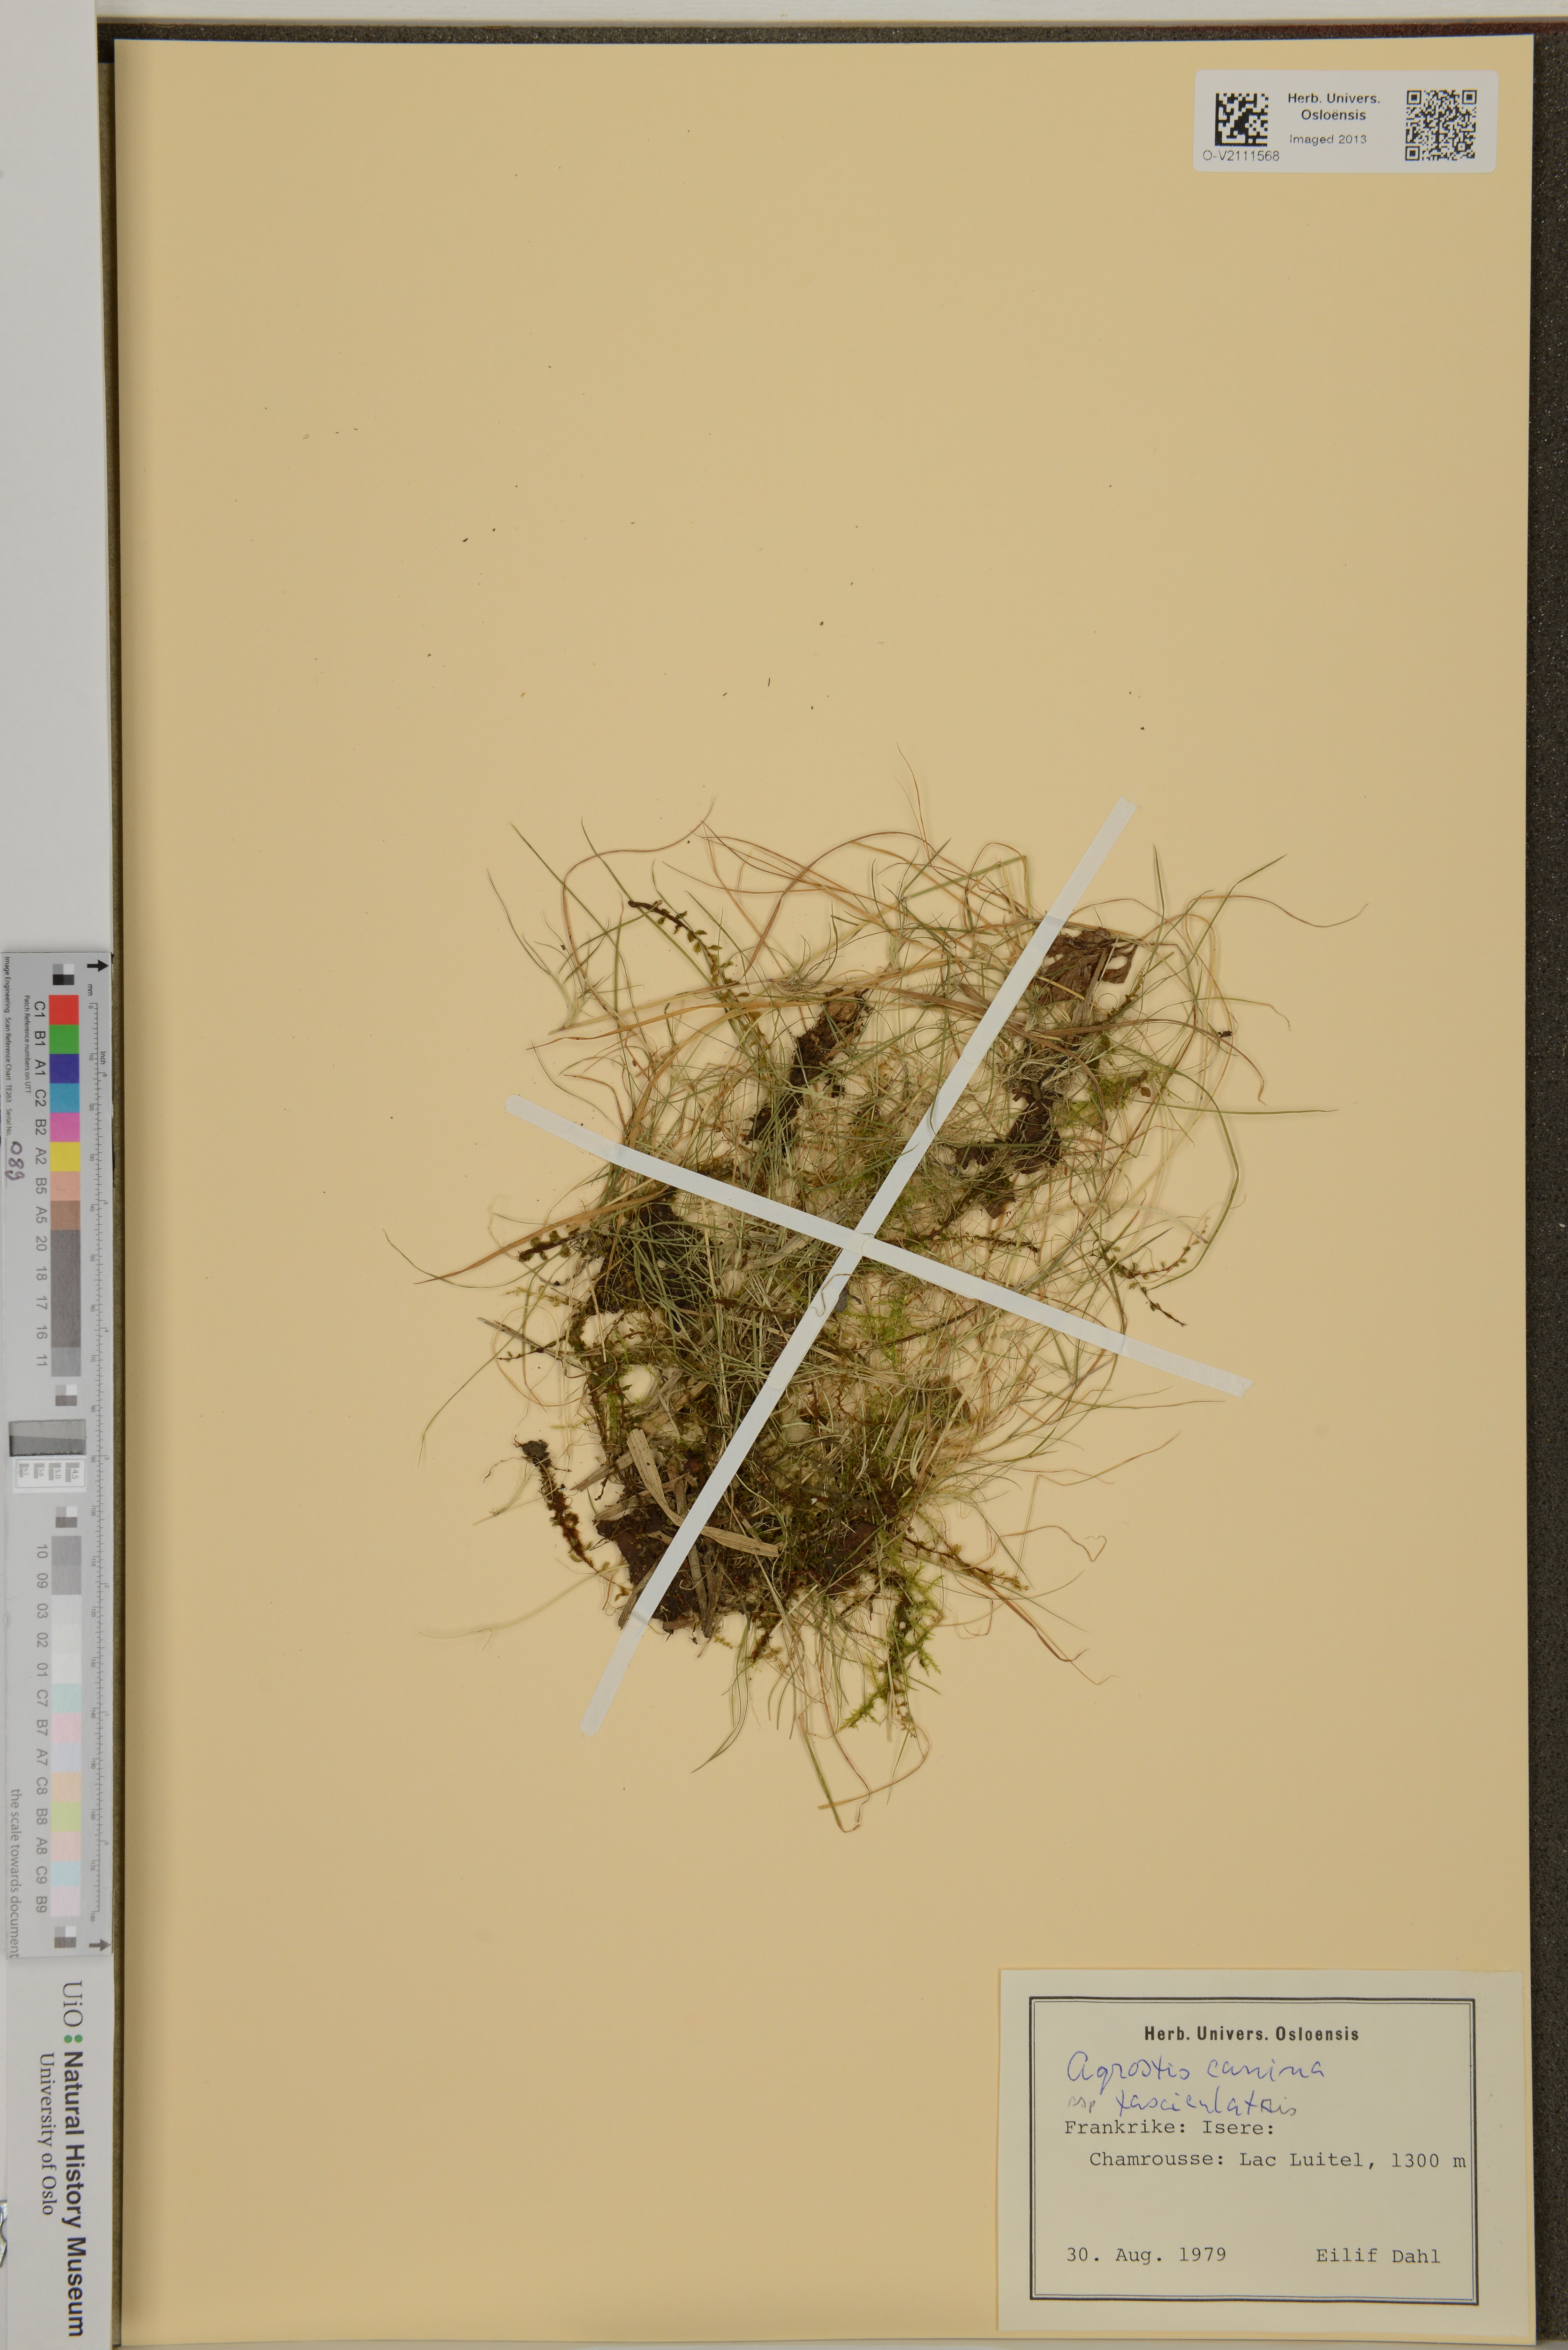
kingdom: Plantae
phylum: Tracheophyta
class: Liliopsida
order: Poales
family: Poaceae
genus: Agrostis
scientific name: Agrostis canina
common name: Velvet bent
